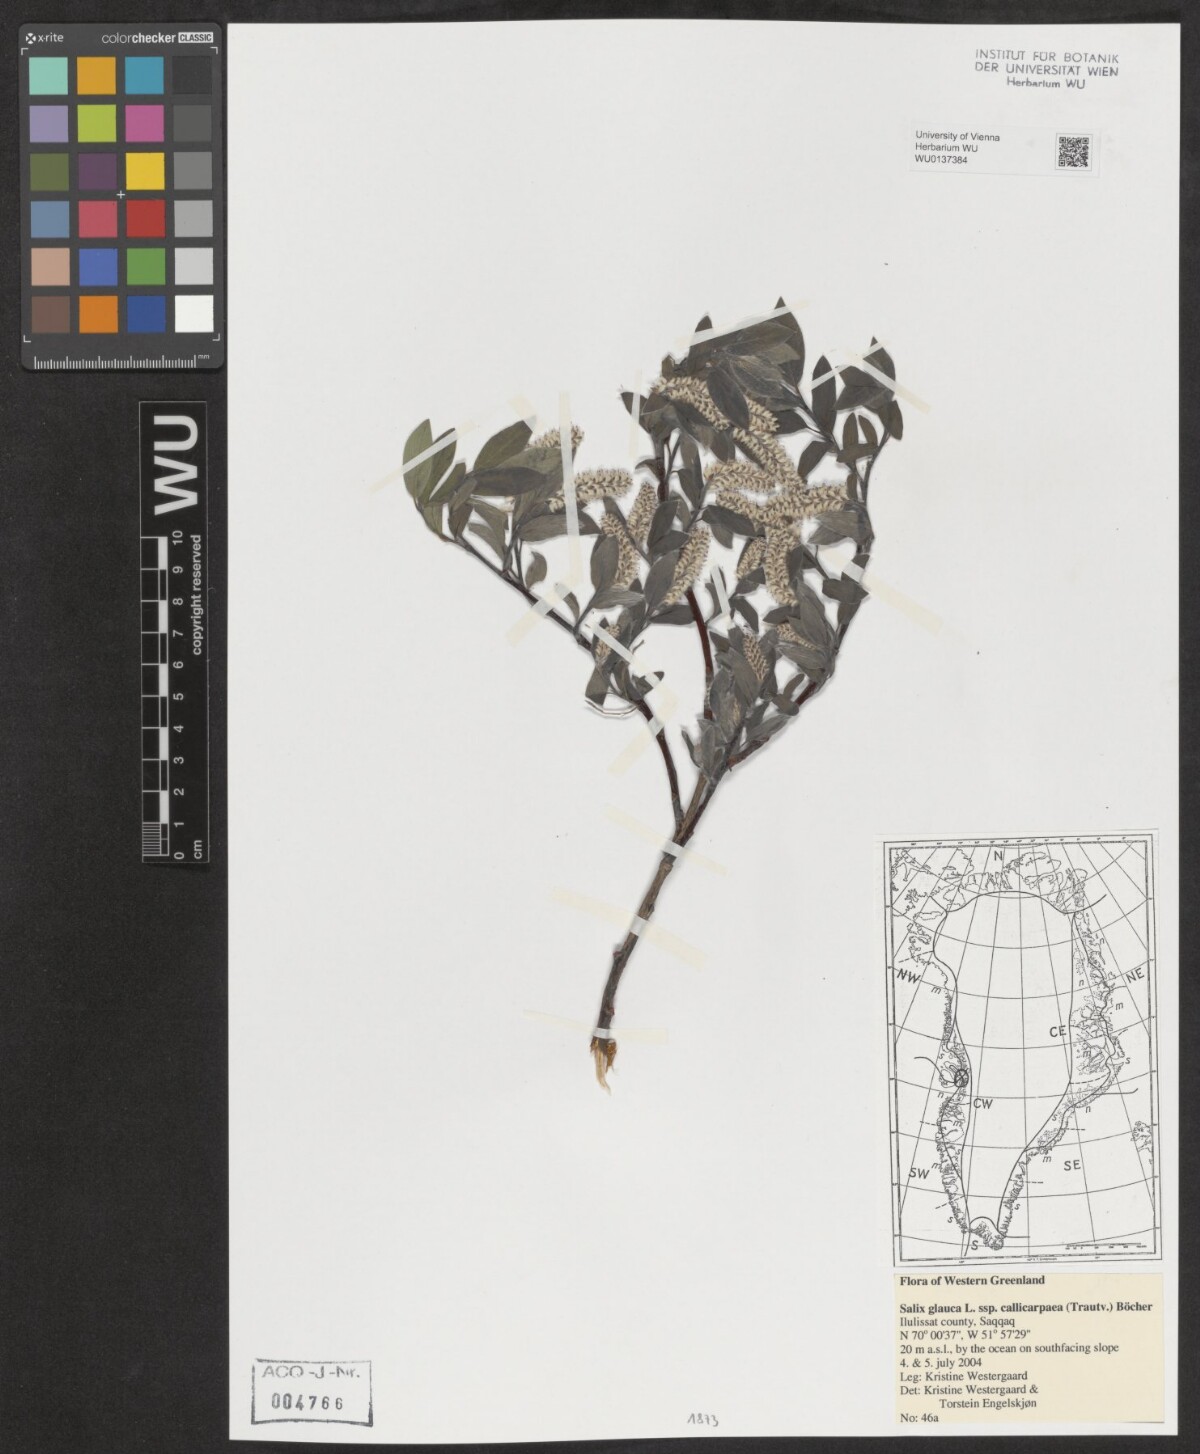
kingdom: Plantae
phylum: Tracheophyta
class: Magnoliopsida
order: Malpighiales
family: Salicaceae
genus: Salix
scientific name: Salix glauca
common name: Glaucous willow
